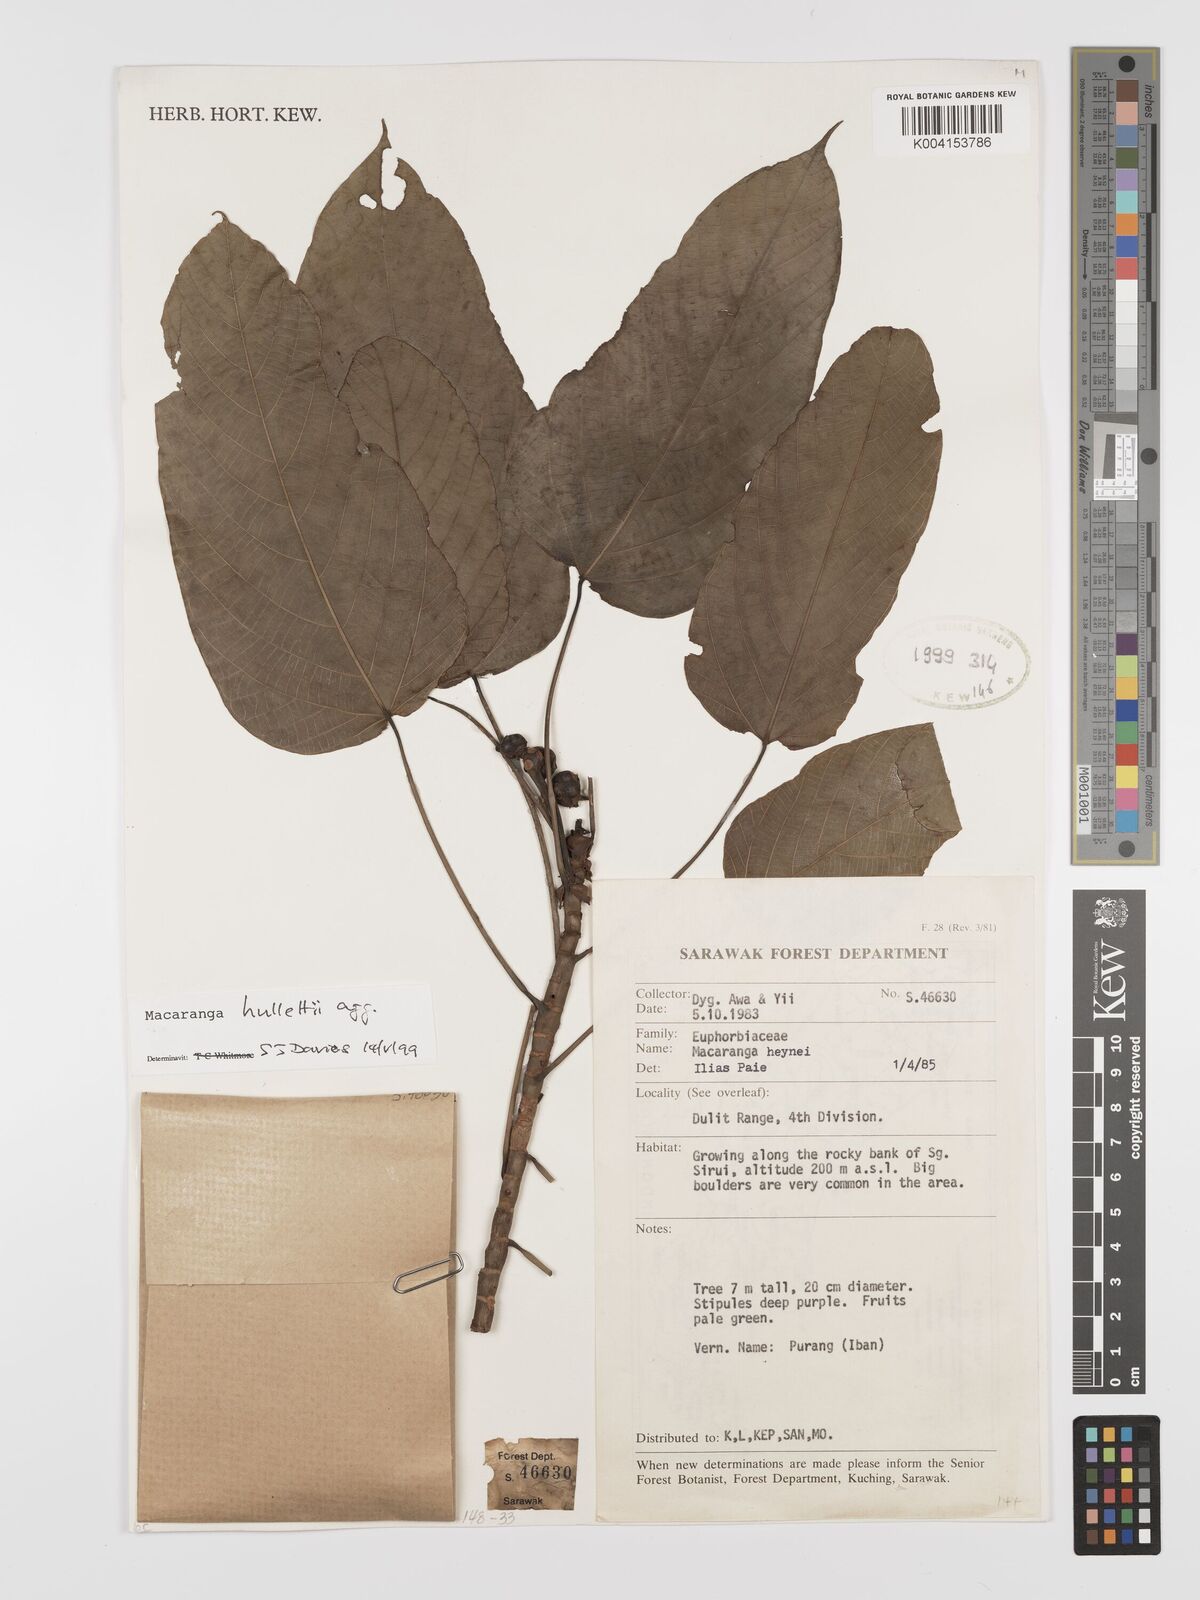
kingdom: Plantae
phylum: Tracheophyta
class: Magnoliopsida
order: Malpighiales
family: Euphorbiaceae
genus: Macaranga
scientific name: Macaranga hullettii
